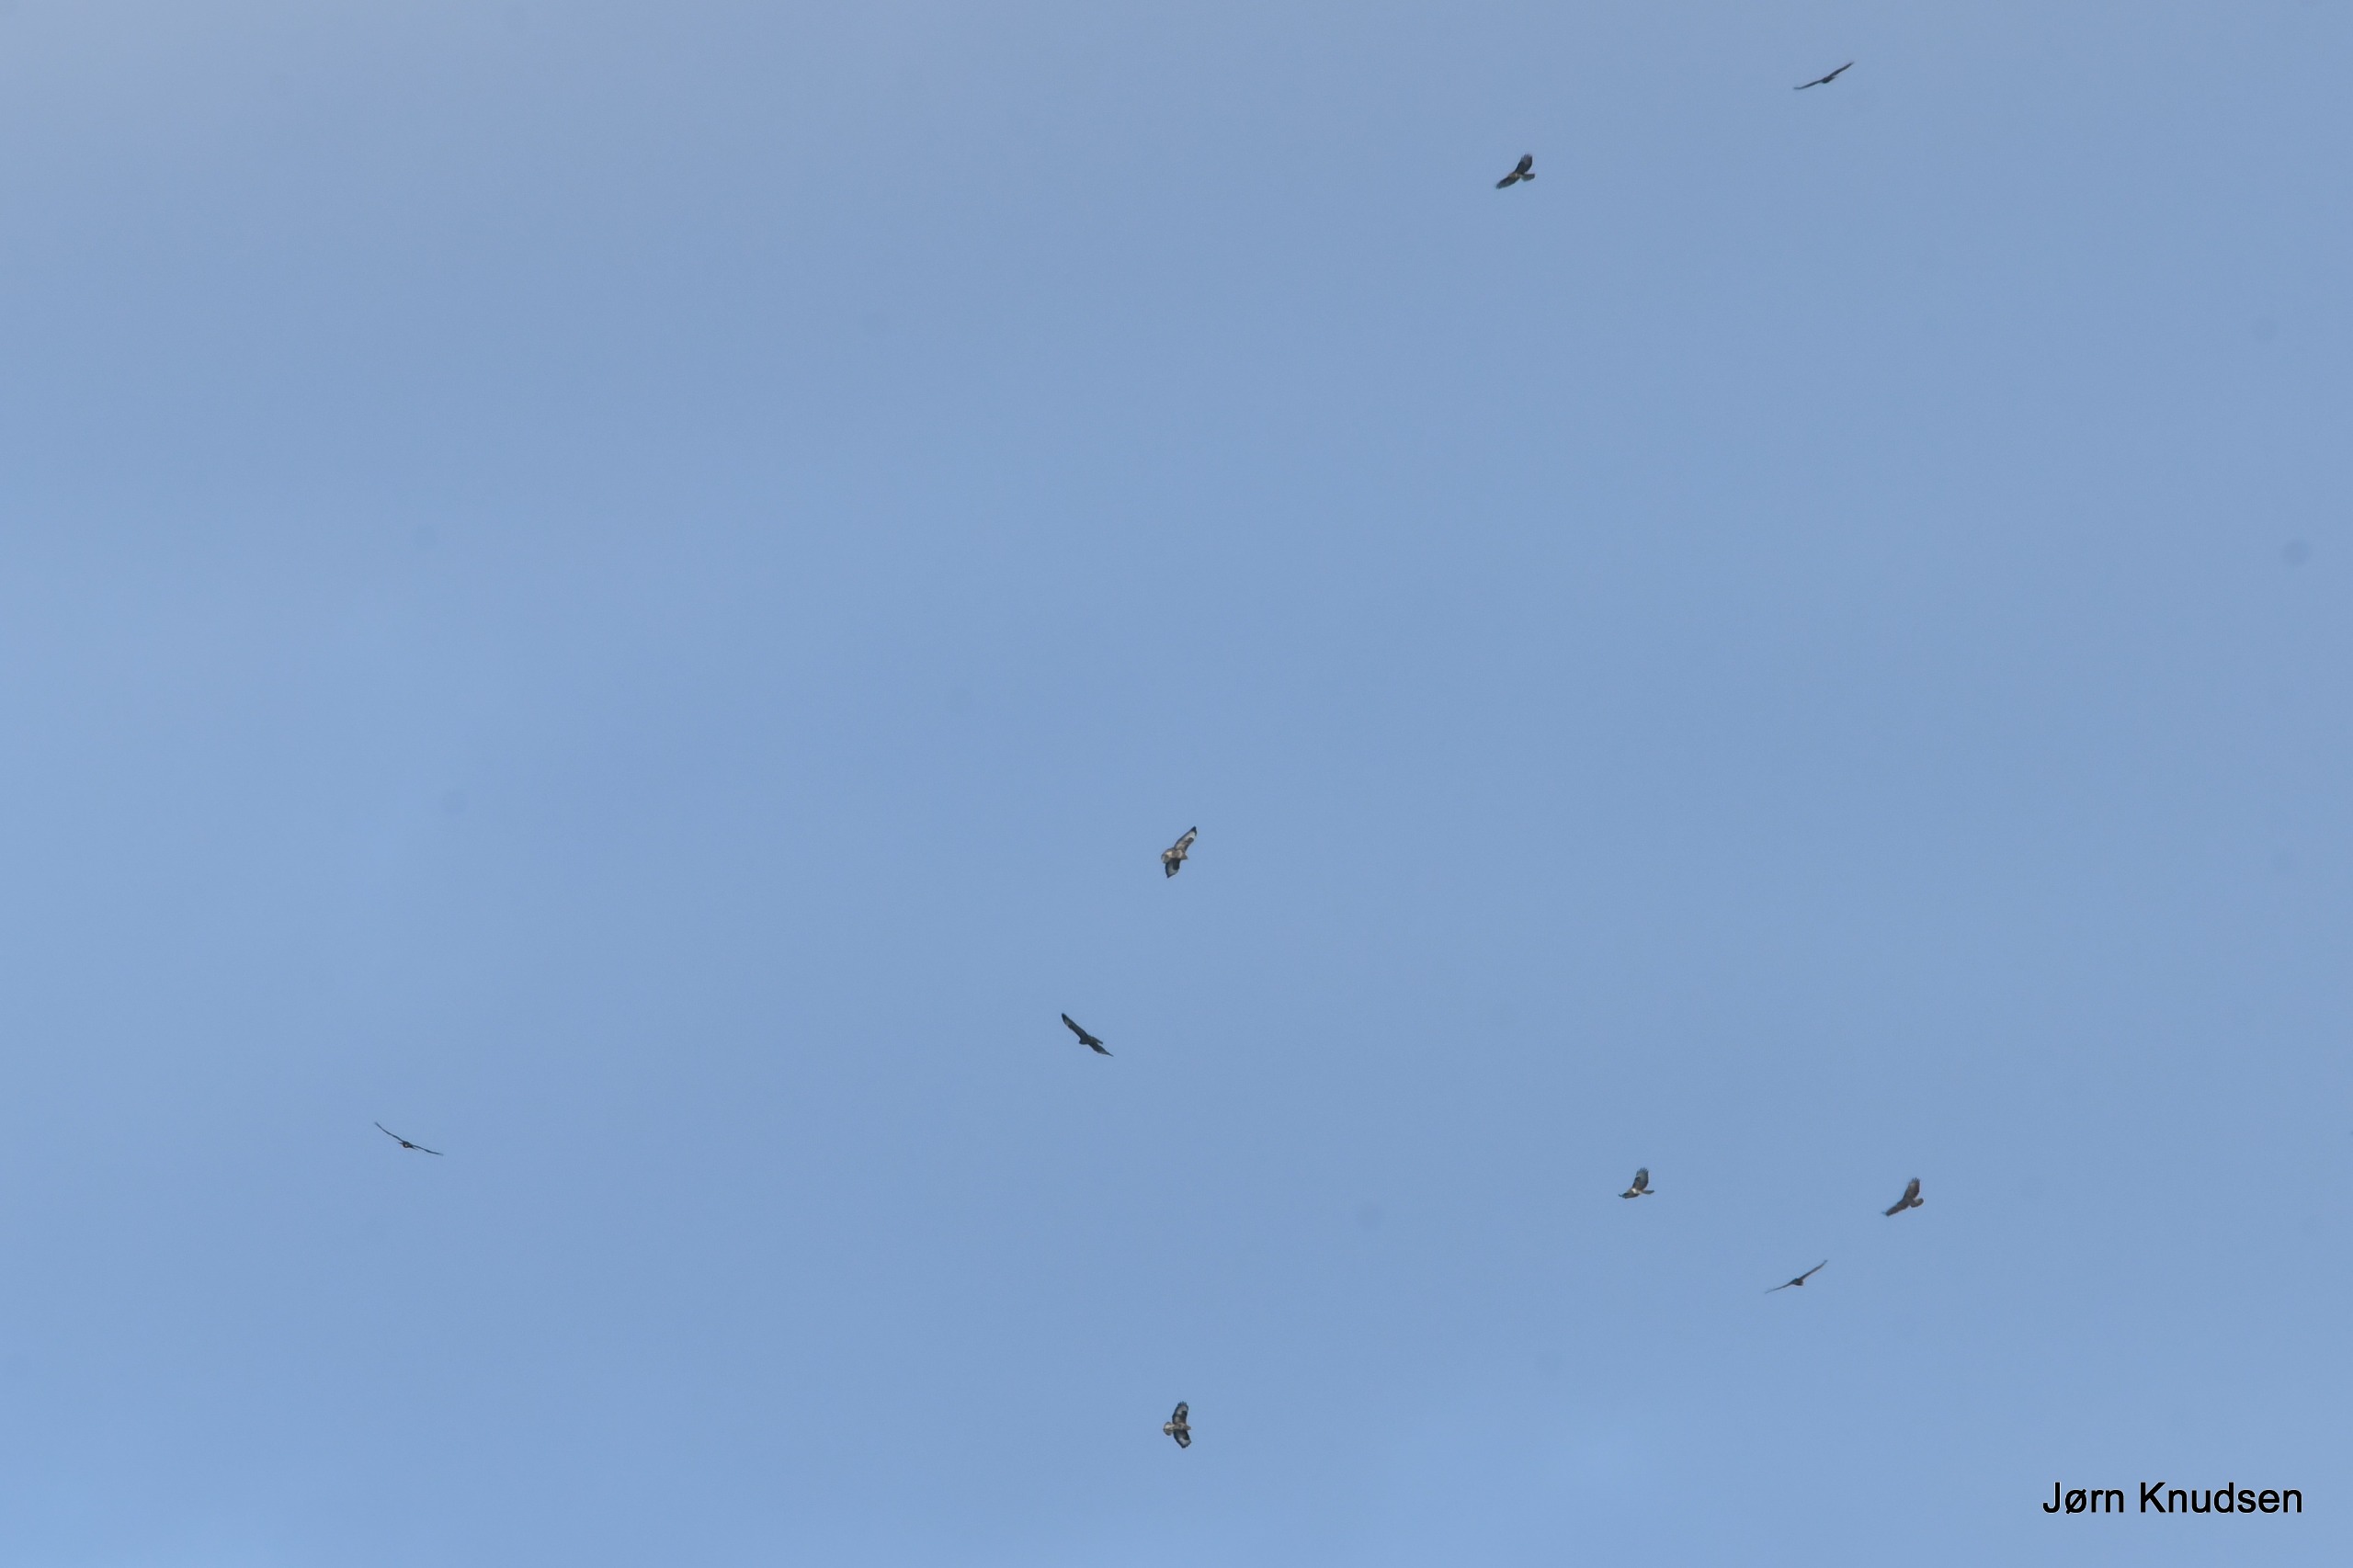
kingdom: Animalia
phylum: Chordata
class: Aves
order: Accipitriformes
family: Accipitridae
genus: Buteo
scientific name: Buteo buteo
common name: Musvåge
